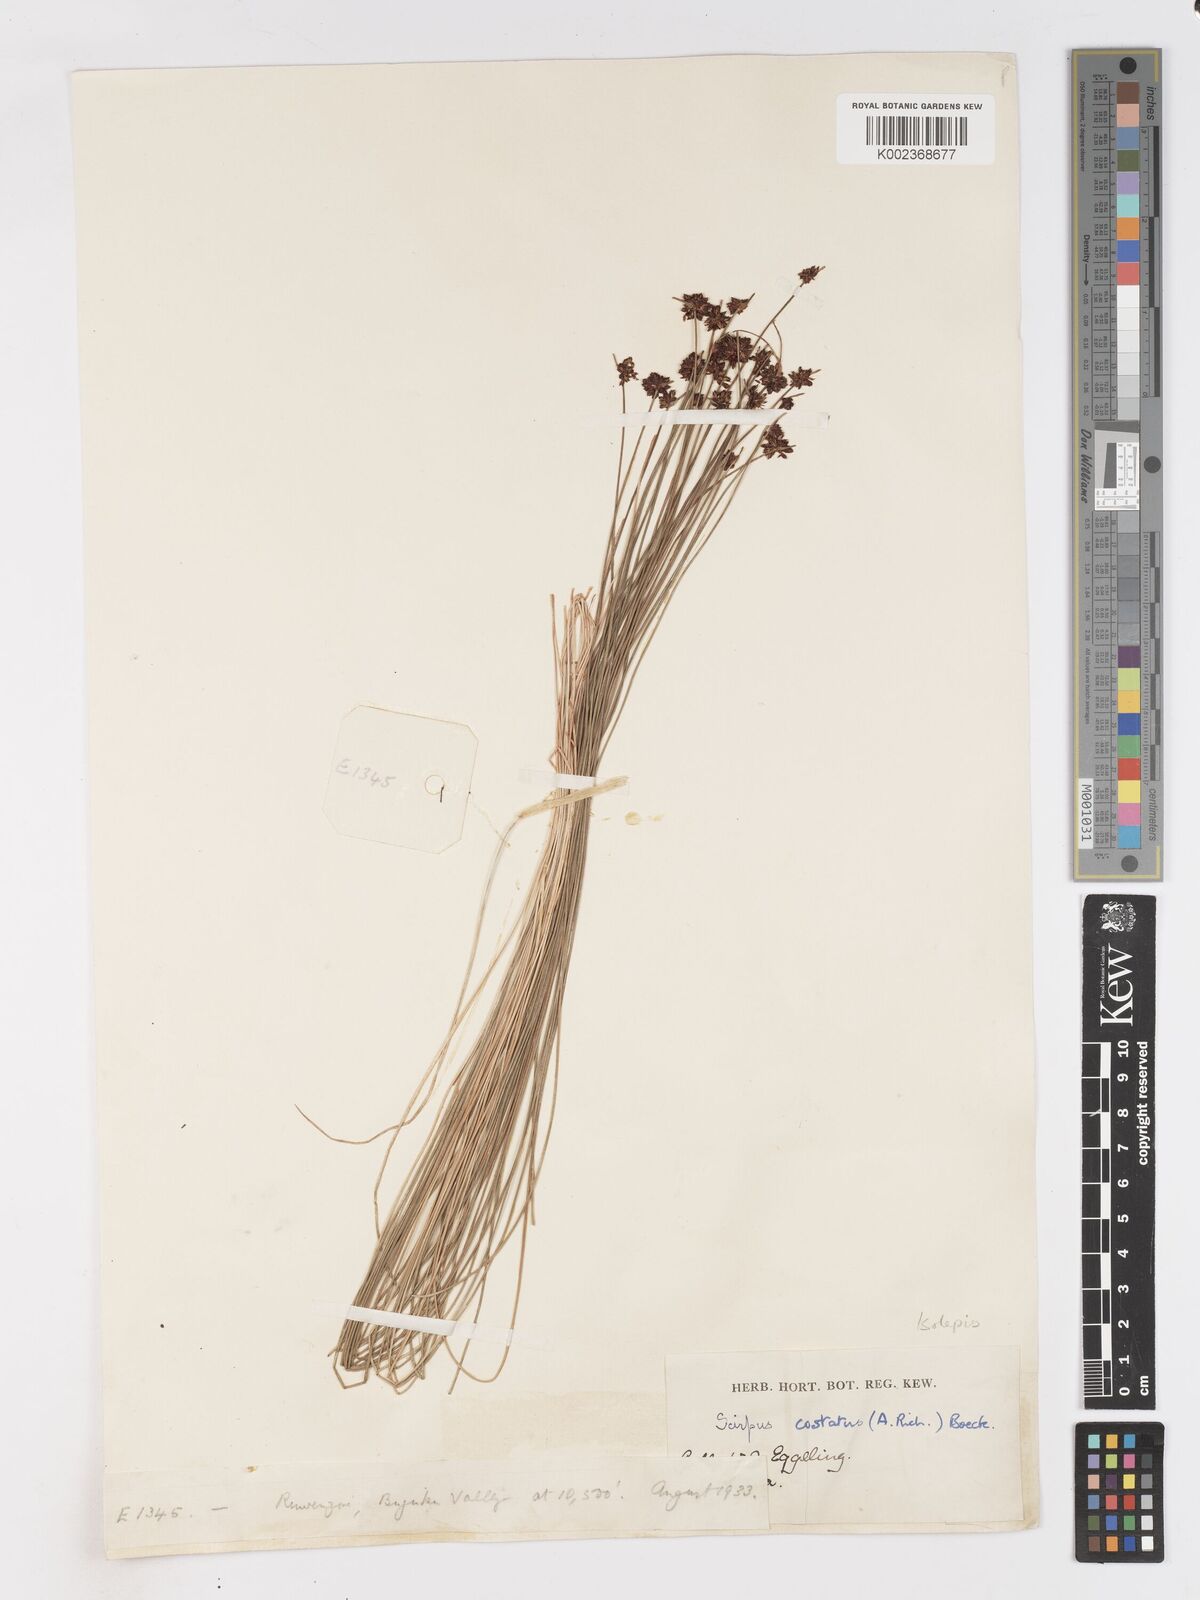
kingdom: Plantae
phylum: Tracheophyta
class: Liliopsida
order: Poales
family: Cyperaceae
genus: Isolepis
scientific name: Isolepis costata
